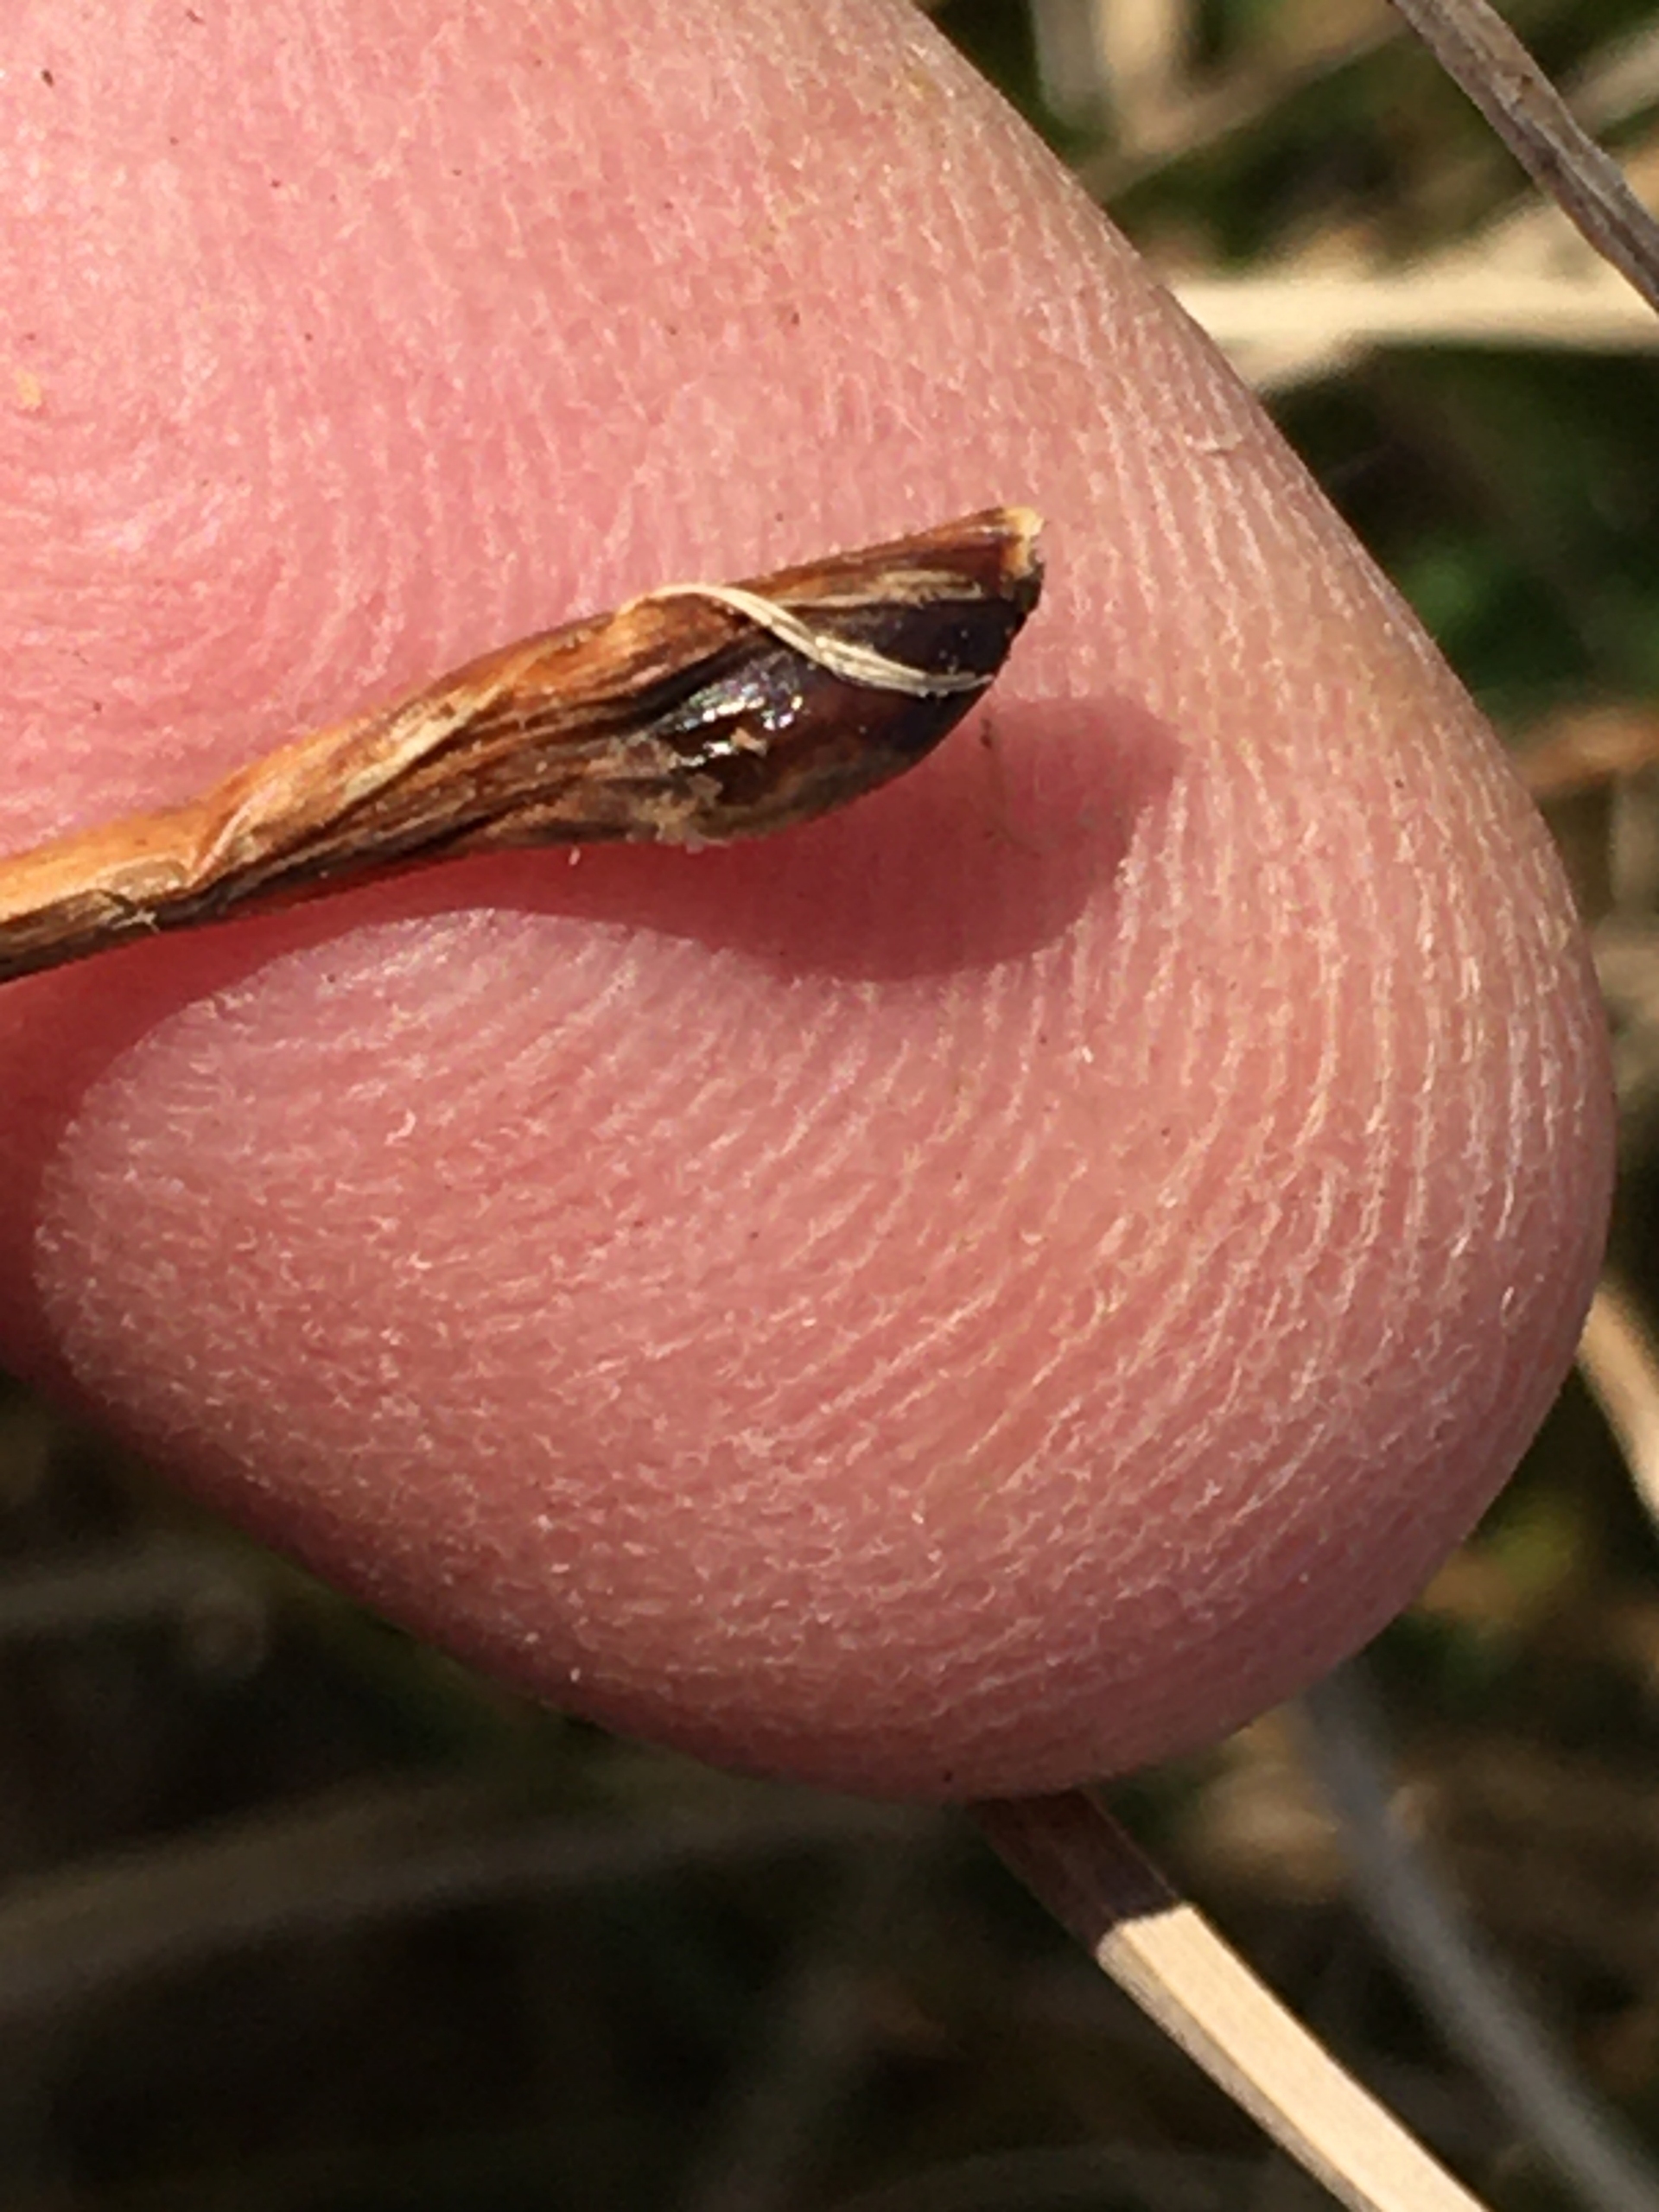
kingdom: Animalia
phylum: Arthropoda
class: Insecta
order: Diptera
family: Cecidomyiidae
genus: Planetella
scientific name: Planetella arenariae
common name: Sandstargalmyg
